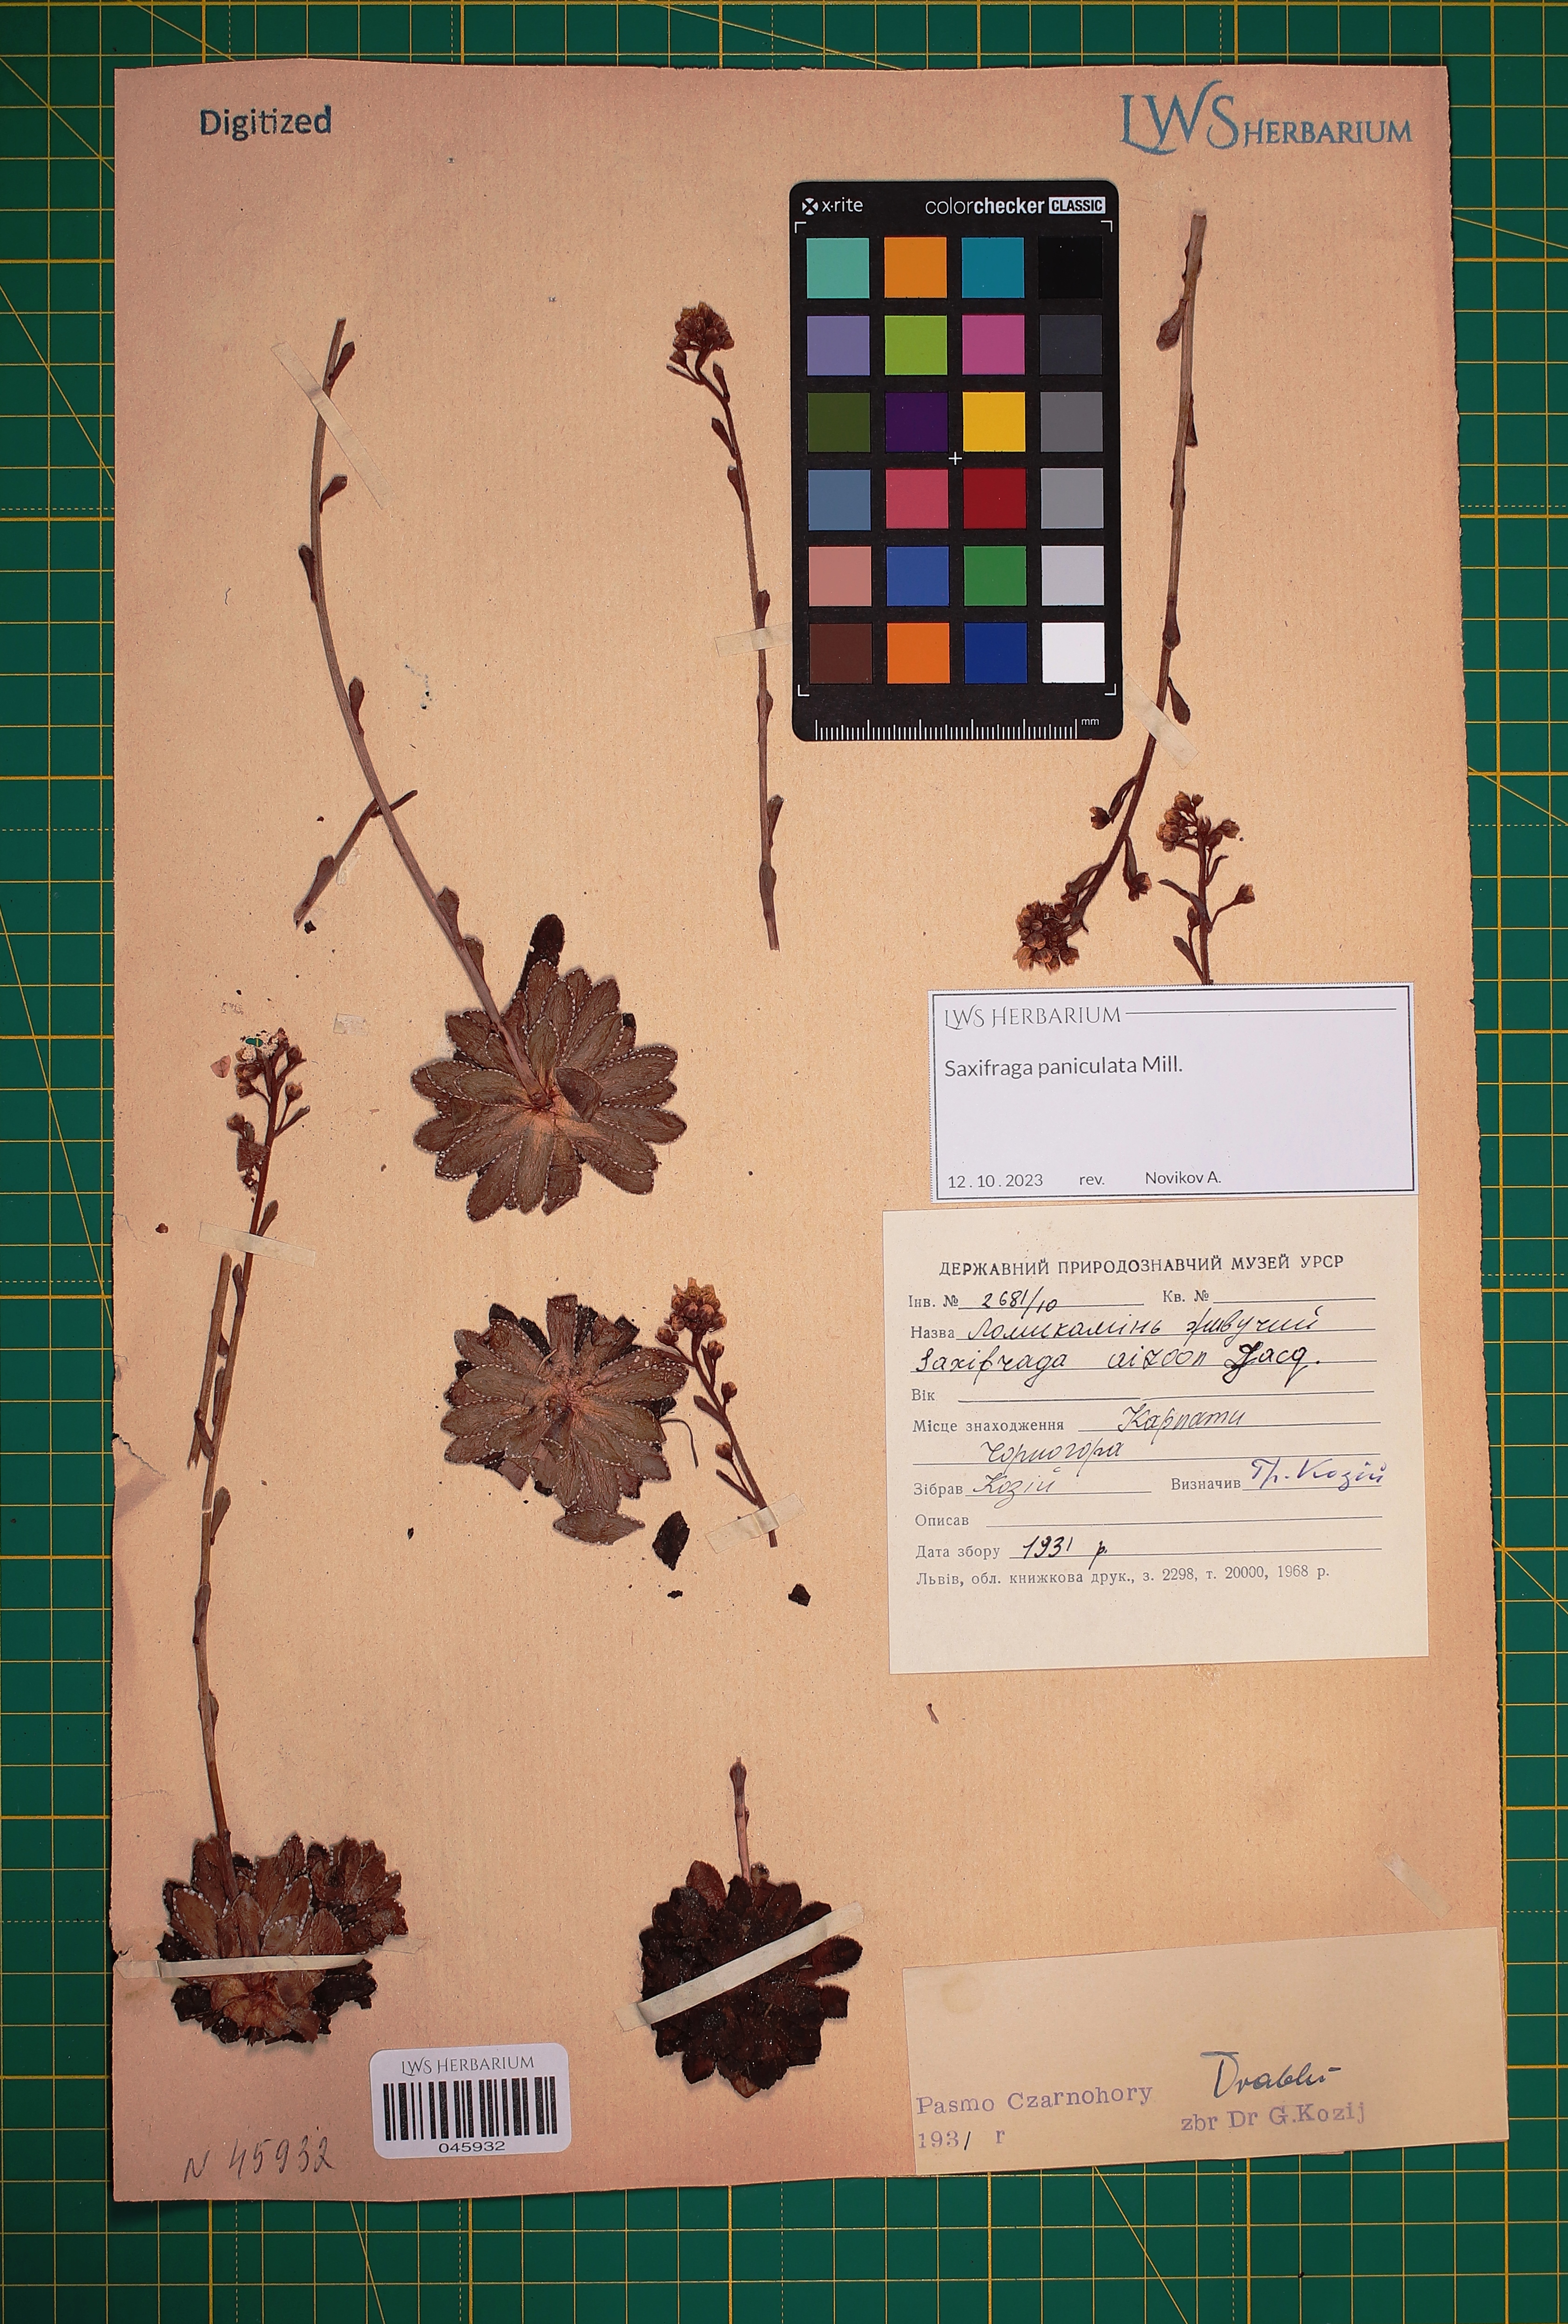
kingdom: Plantae
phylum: Tracheophyta
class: Magnoliopsida
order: Saxifragales
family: Saxifragaceae
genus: Saxifraga
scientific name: Saxifraga paniculata
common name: Livelong saxifrage
